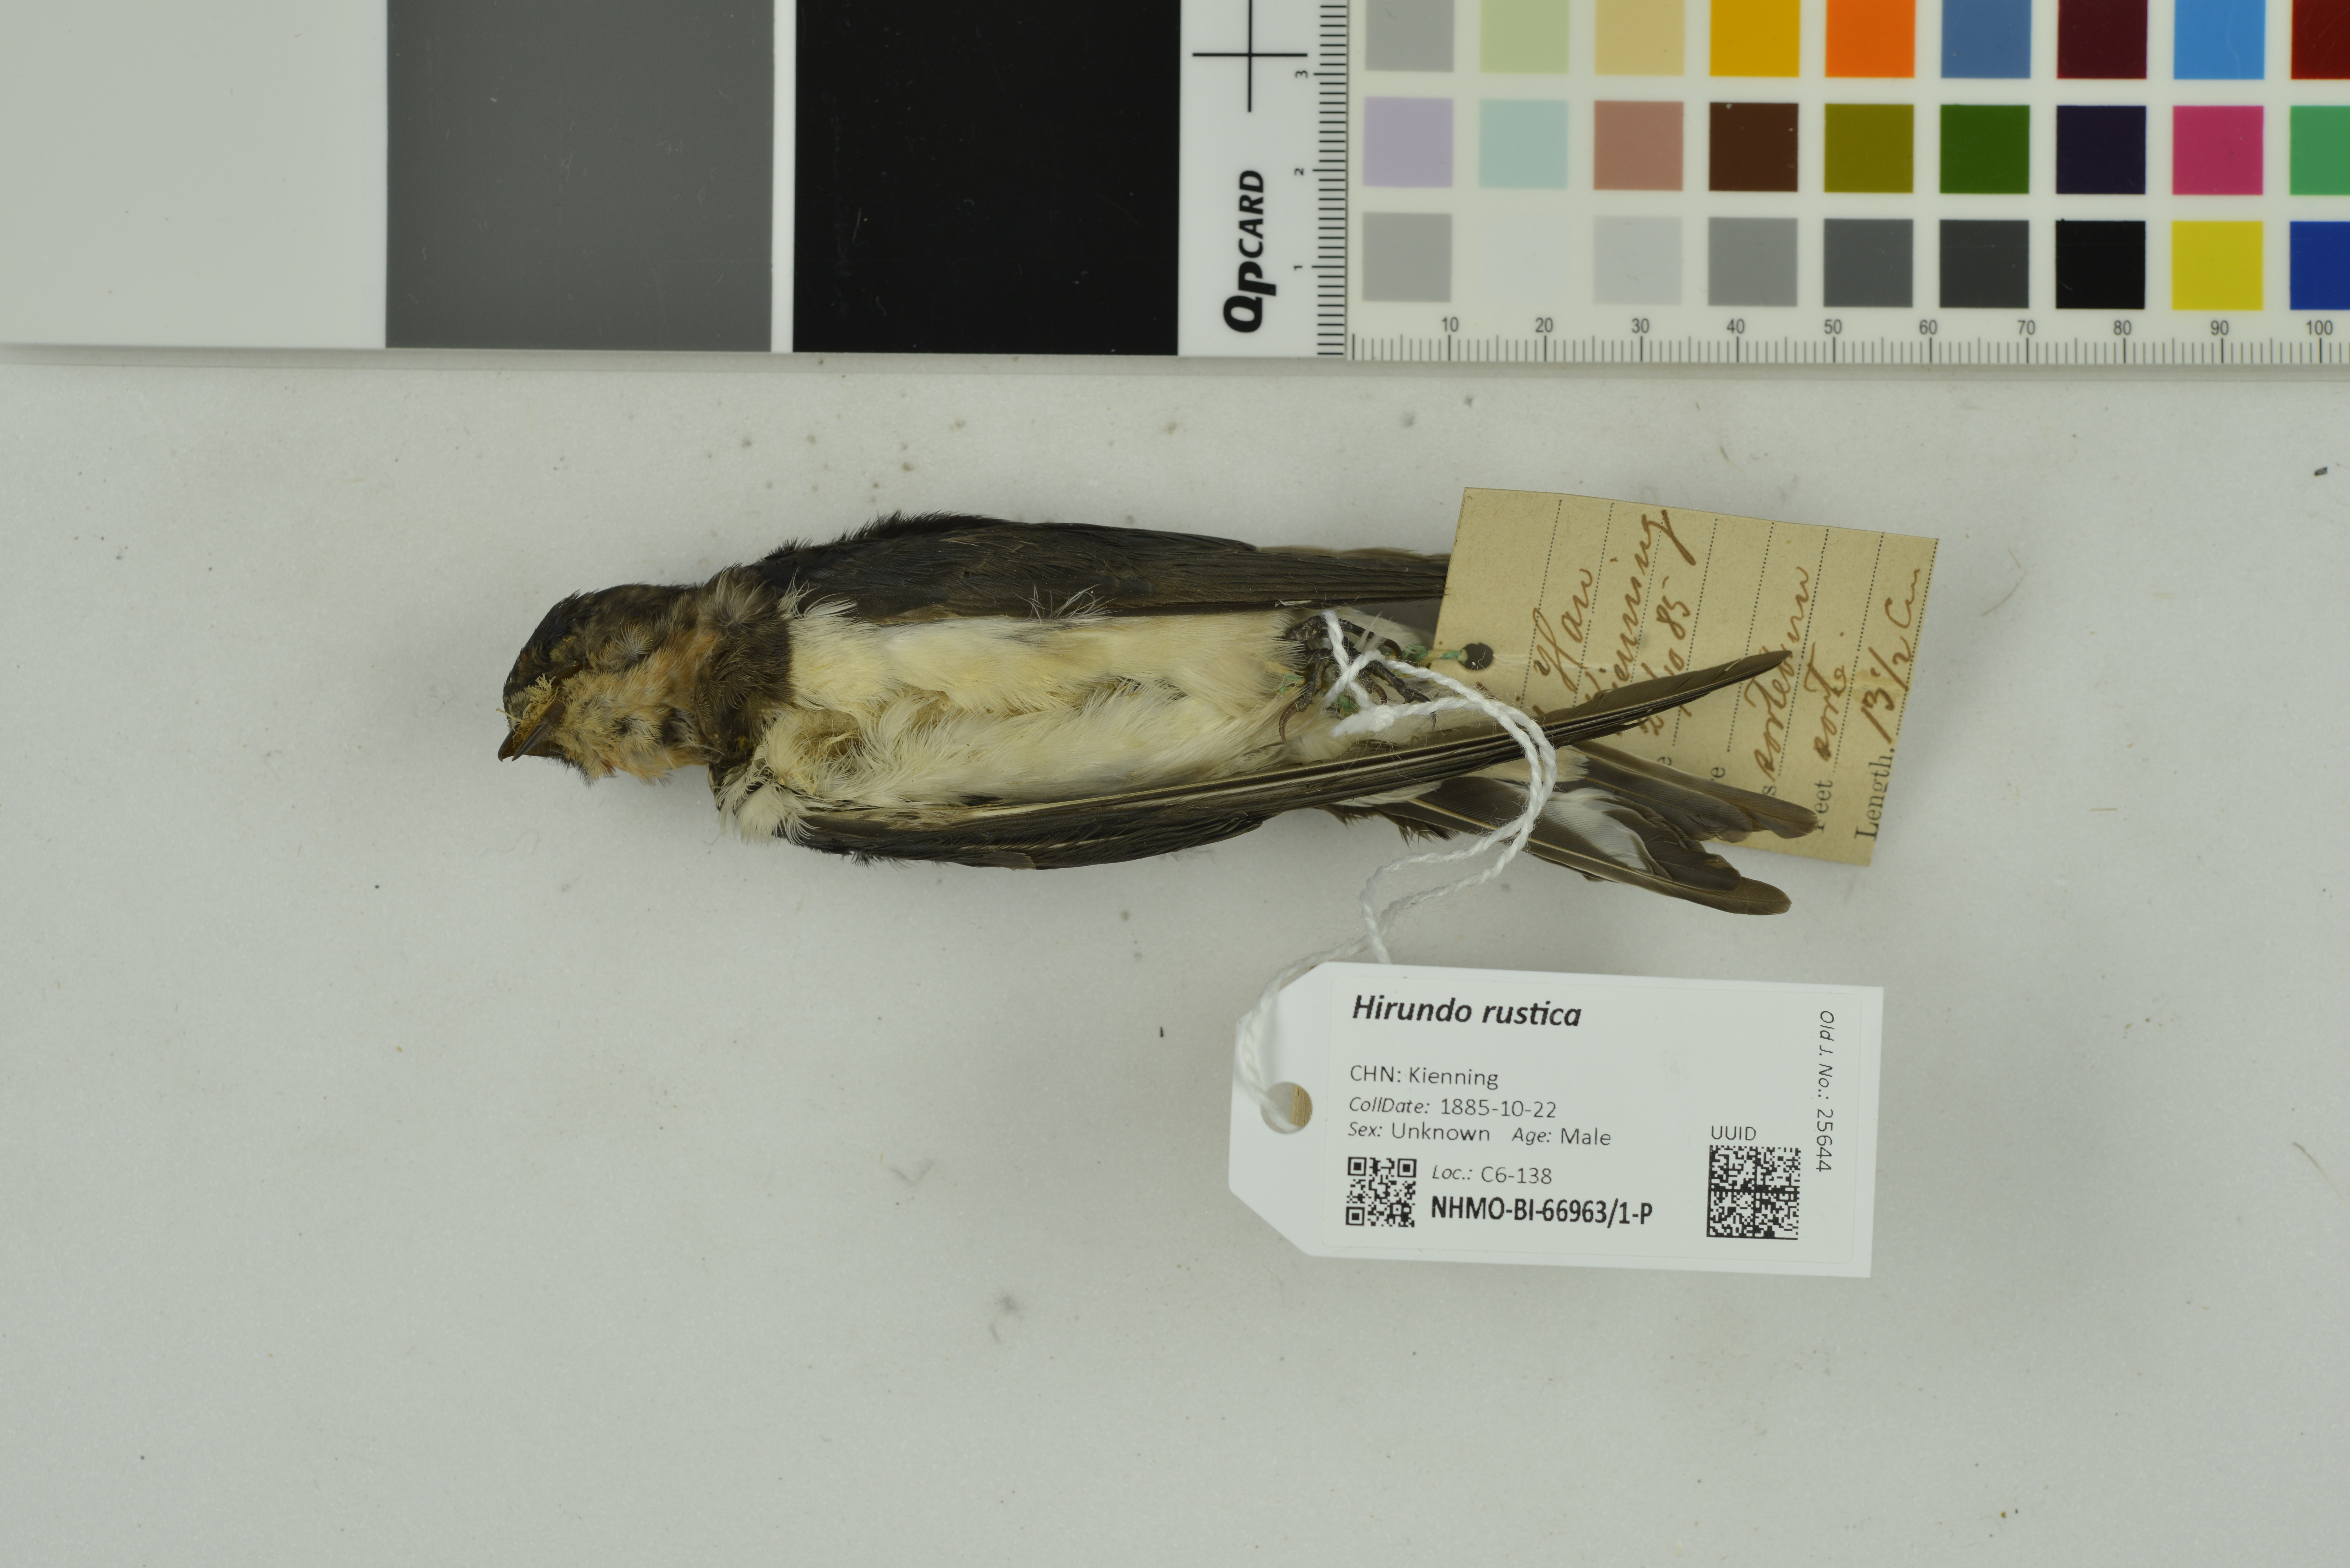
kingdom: Animalia
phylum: Chordata
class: Aves
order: Passeriformes
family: Hirundinidae
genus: Hirundo
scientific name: Hirundo rustica
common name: Barn swallow
